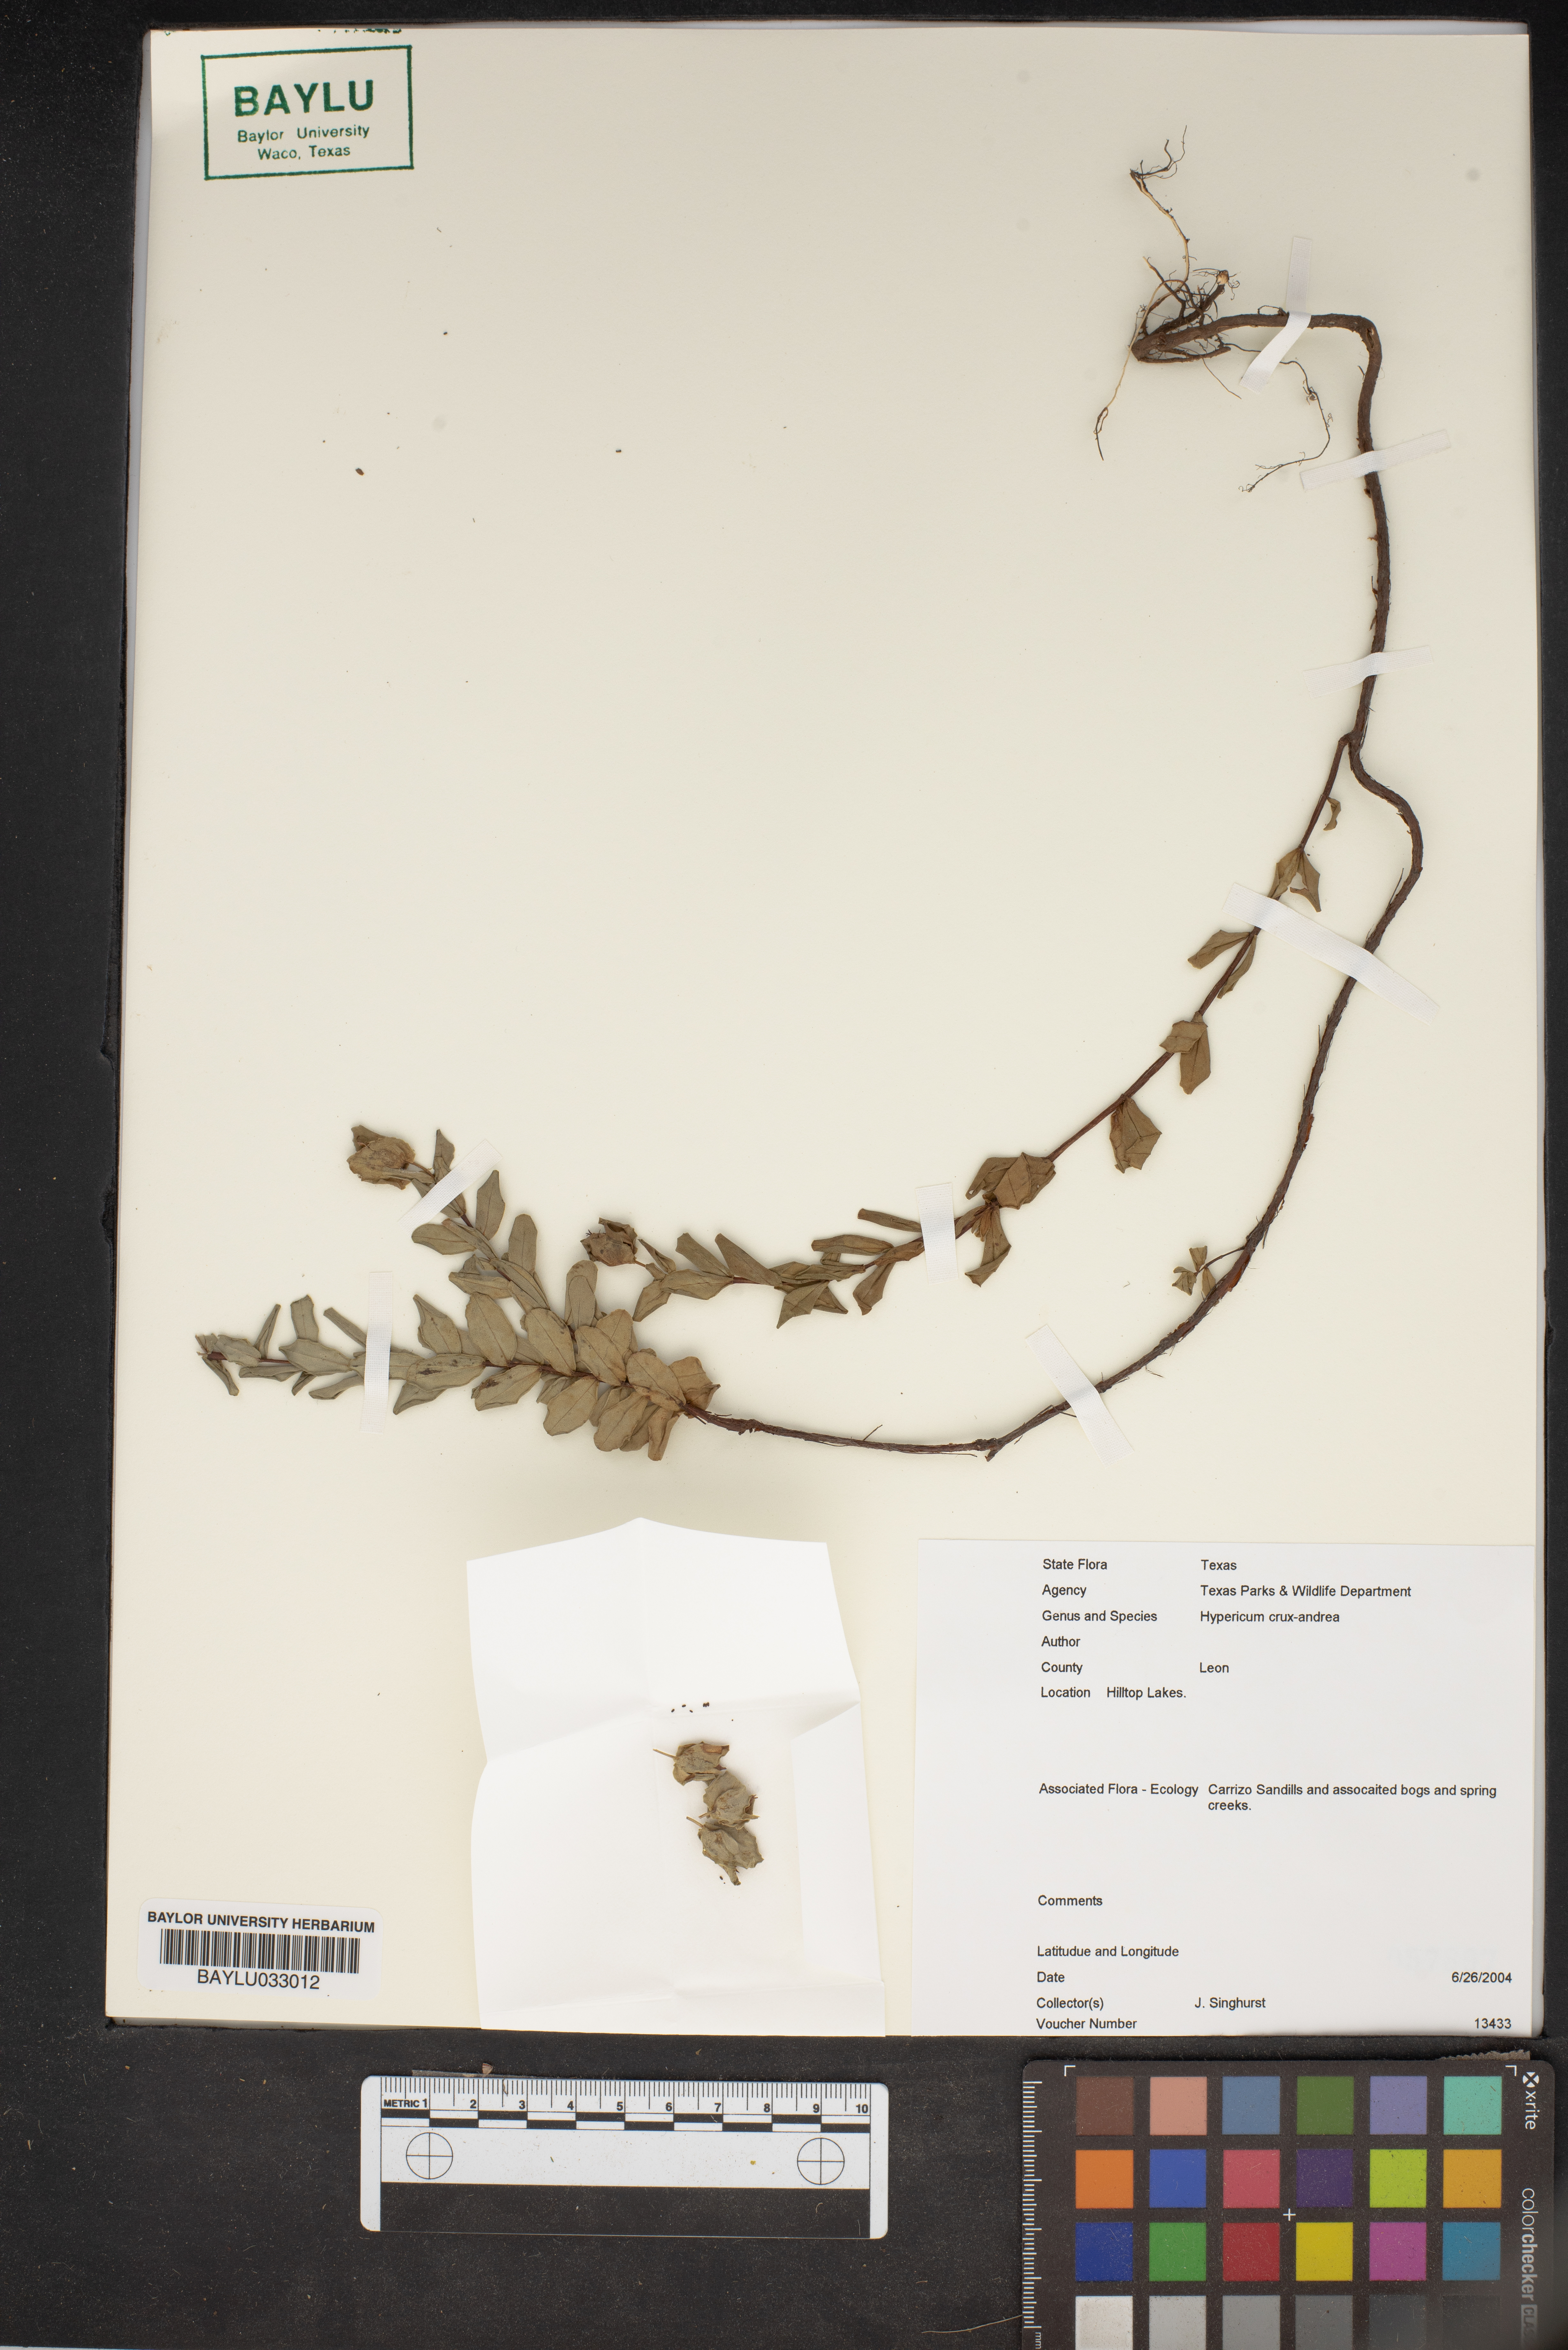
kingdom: Plantae
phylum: Tracheophyta
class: Magnoliopsida
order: Malpighiales
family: Hypericaceae
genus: Hypericum
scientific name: Hypericum crux-andreae
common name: St.-peter's-wort
